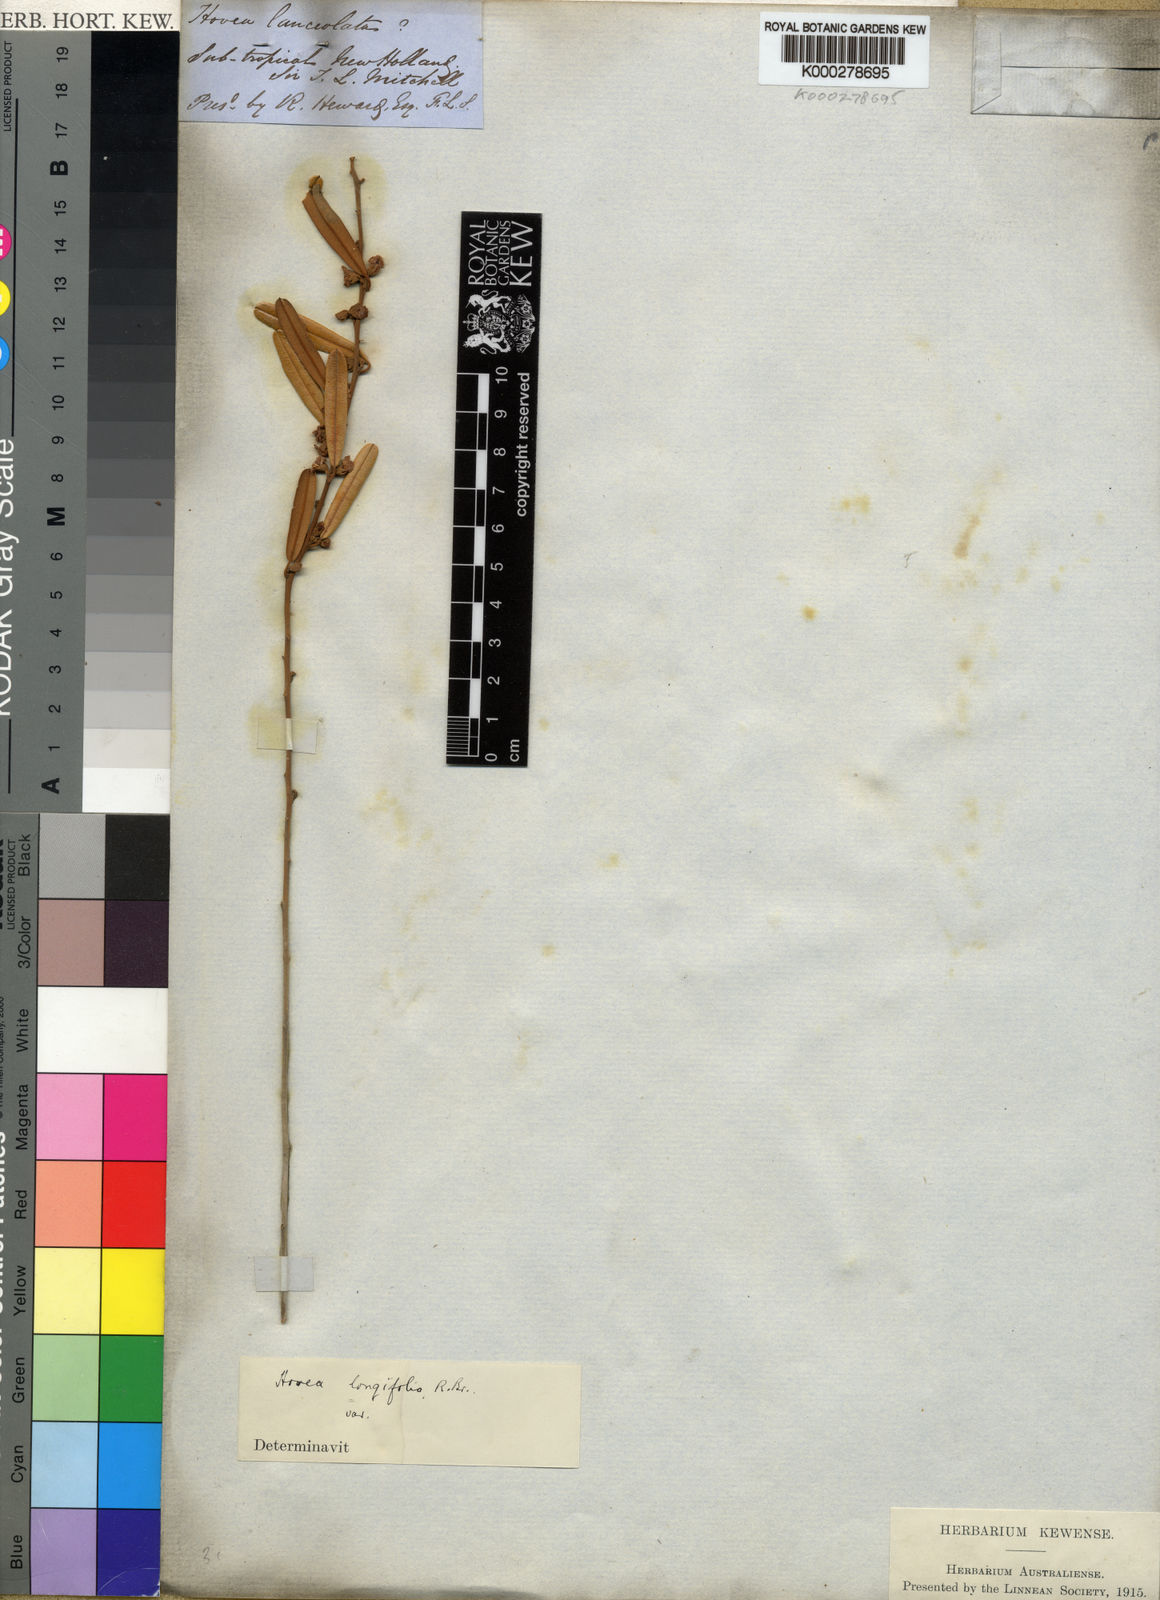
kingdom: Plantae
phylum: Tracheophyta
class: Magnoliopsida
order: Fabales
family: Fabaceae
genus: Hovea
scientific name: Hovea longifolia
